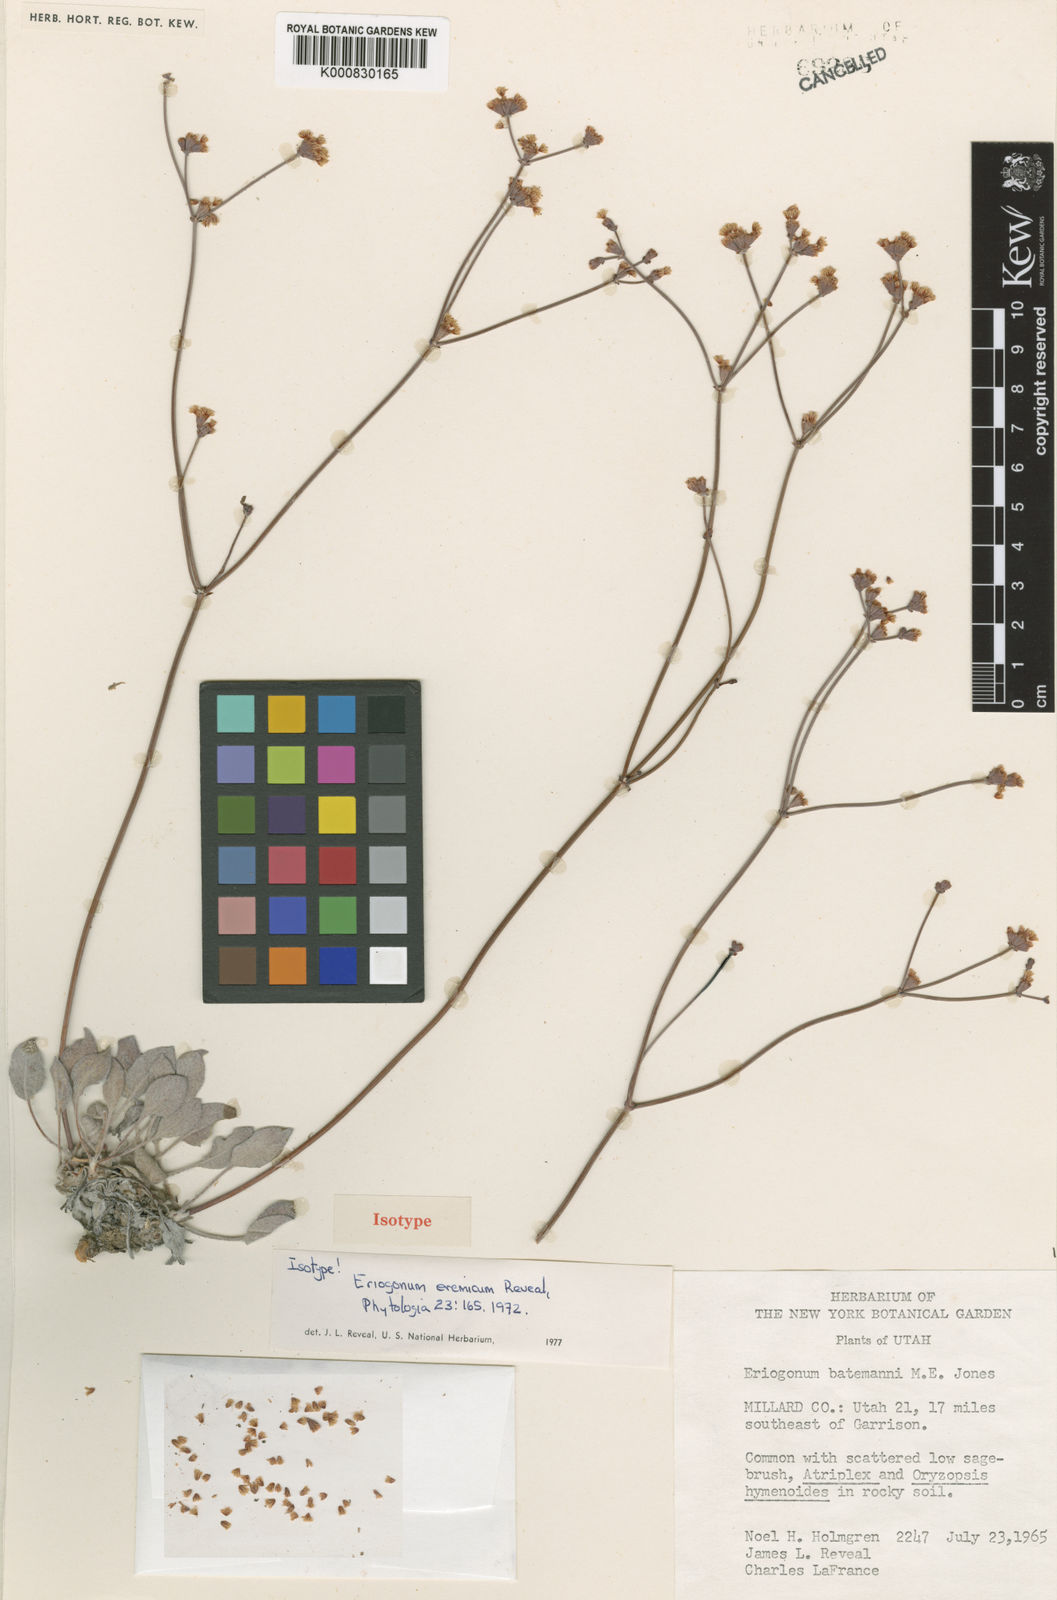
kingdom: Plantae
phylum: Tracheophyta
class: Magnoliopsida
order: Caryophyllales
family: Polygonaceae
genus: Eriogonum
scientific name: Eriogonum eremicum
